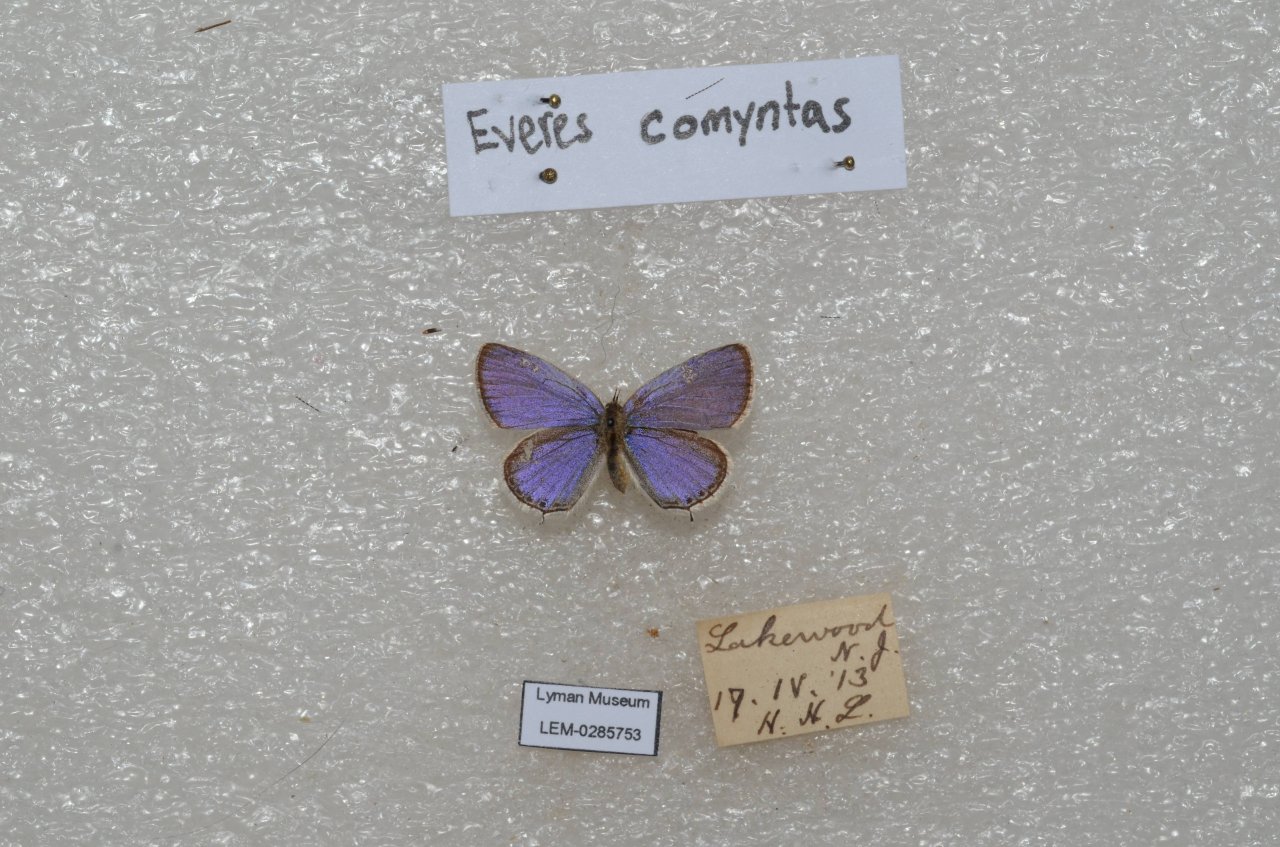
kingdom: Animalia
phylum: Arthropoda
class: Insecta
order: Lepidoptera
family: Lycaenidae
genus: Elkalyce
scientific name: Elkalyce comyntas
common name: Eastern Tailed-Blue
